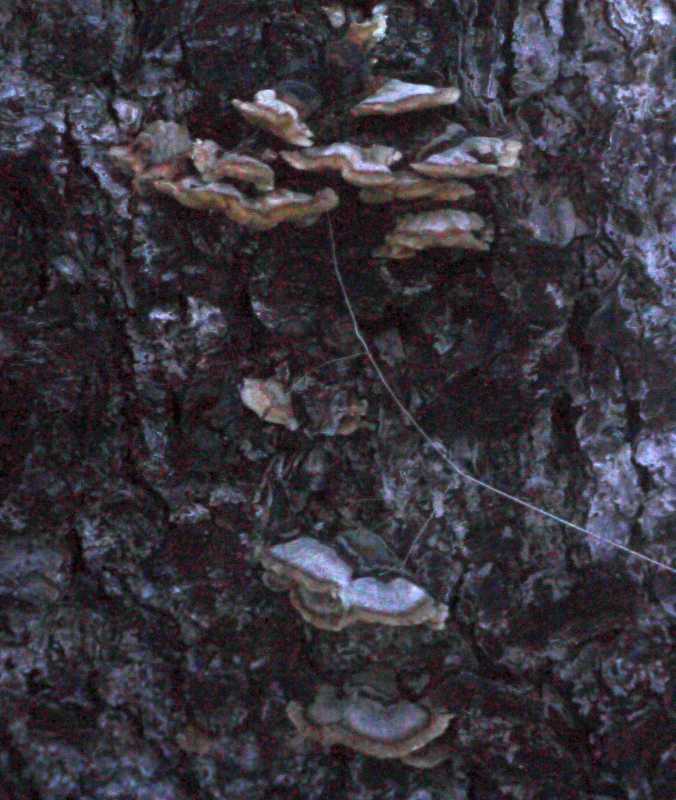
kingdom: Fungi
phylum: Basidiomycota
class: Agaricomycetes
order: Polyporales
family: Polyporaceae
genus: Trametes
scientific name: Trametes versicolor
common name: broget læderporesvamp
